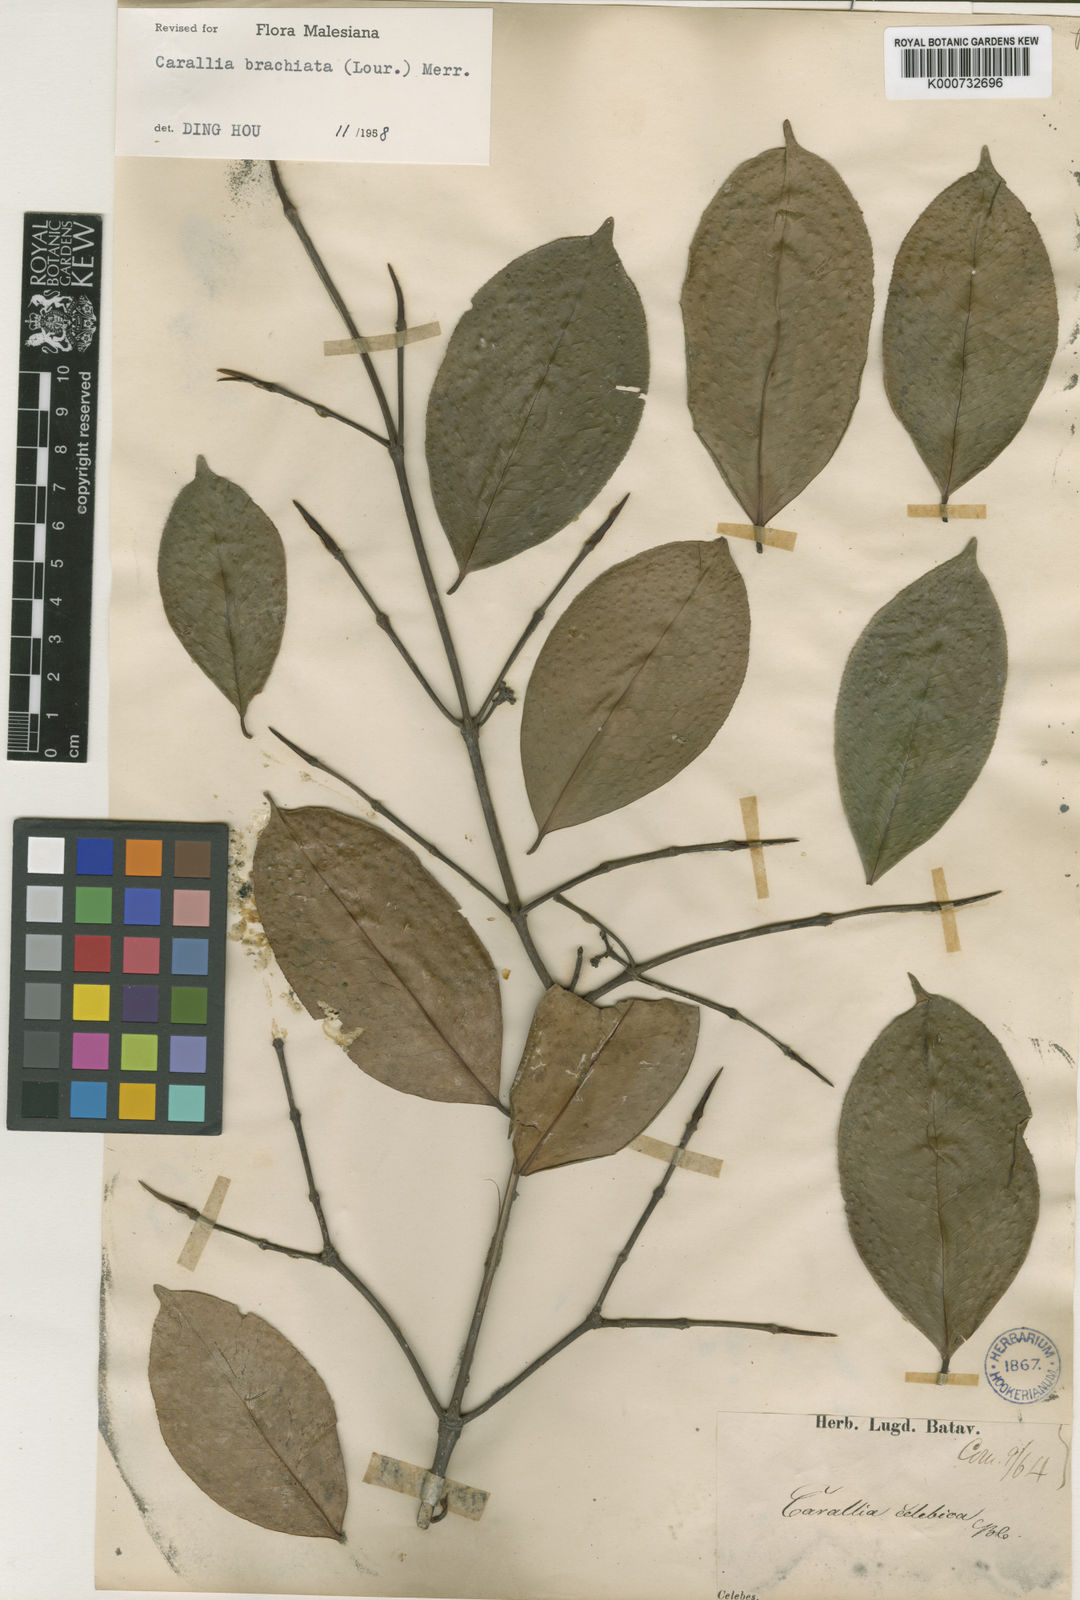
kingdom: Plantae
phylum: Tracheophyta
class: Magnoliopsida
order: Malpighiales
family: Rhizophoraceae
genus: Carallia
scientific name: Carallia brachiata
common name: Carallawood
